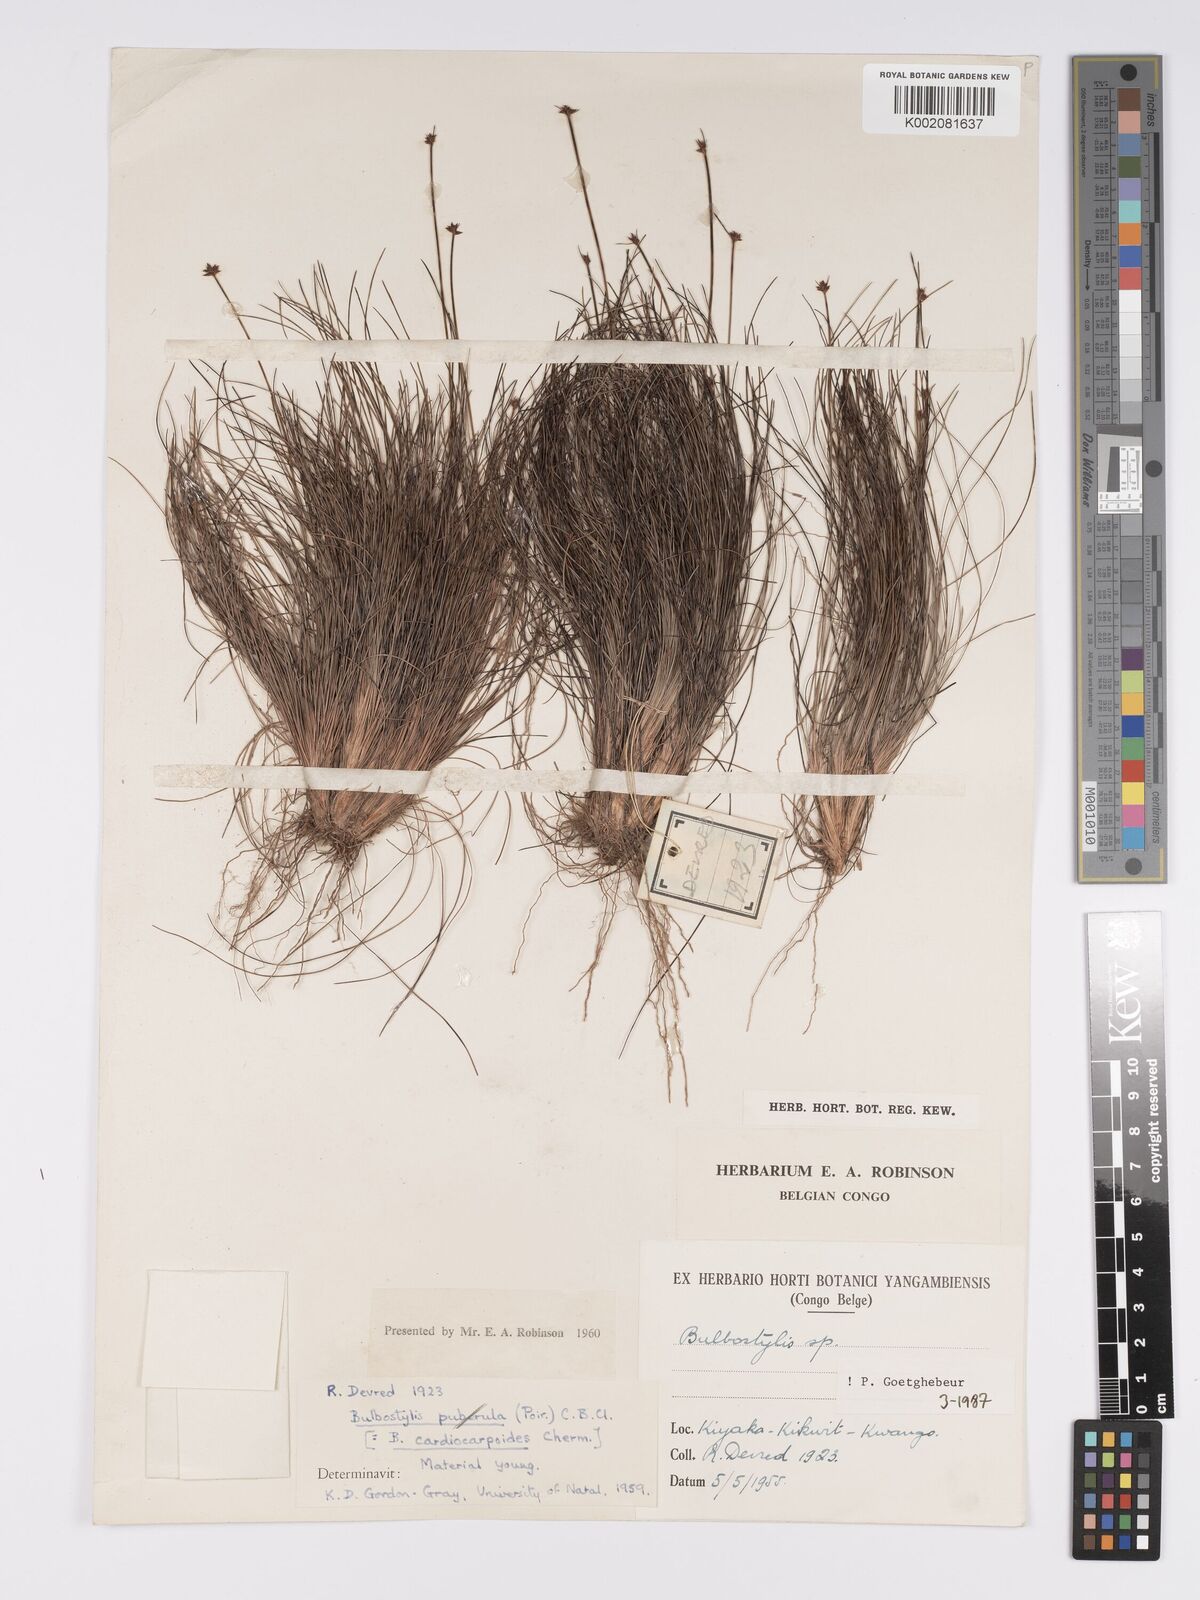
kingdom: Plantae
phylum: Tracheophyta
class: Liliopsida
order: Poales
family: Cyperaceae
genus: Bulbostylis
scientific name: Bulbostylis cardiocarpoides
